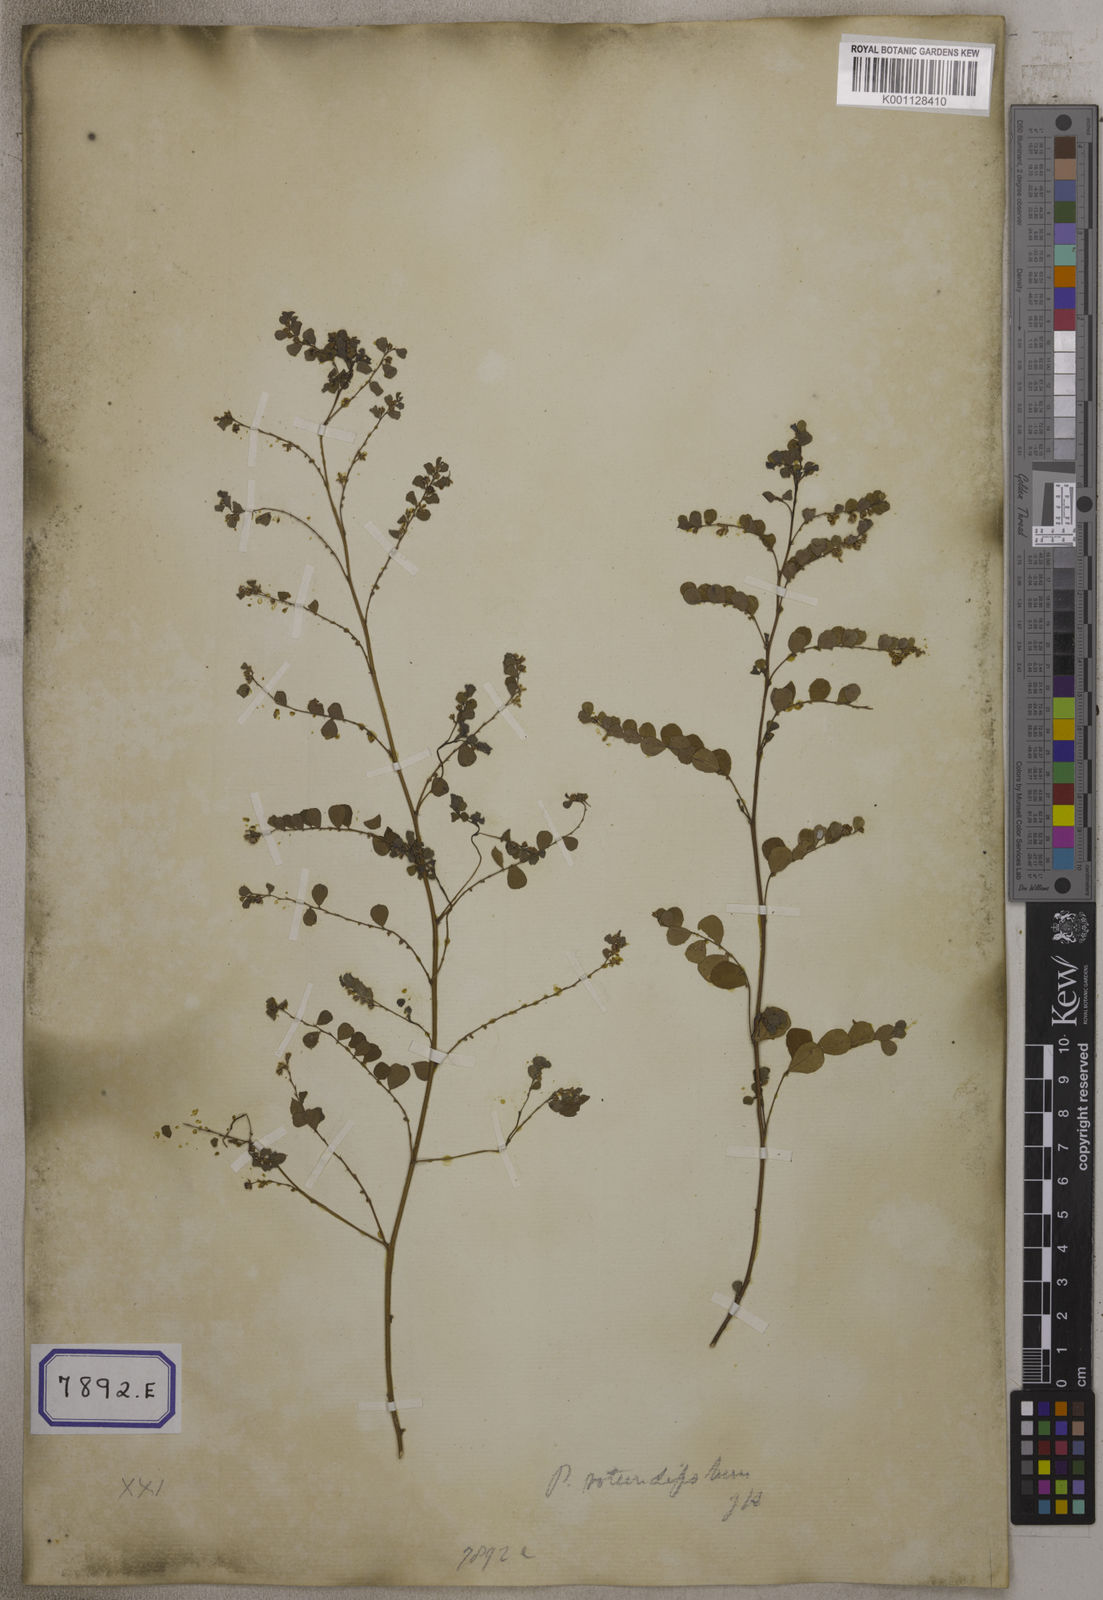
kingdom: Plantae
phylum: Tracheophyta
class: Magnoliopsida
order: Malpighiales
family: Euphorbiaceae
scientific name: Euphorbiaceae
